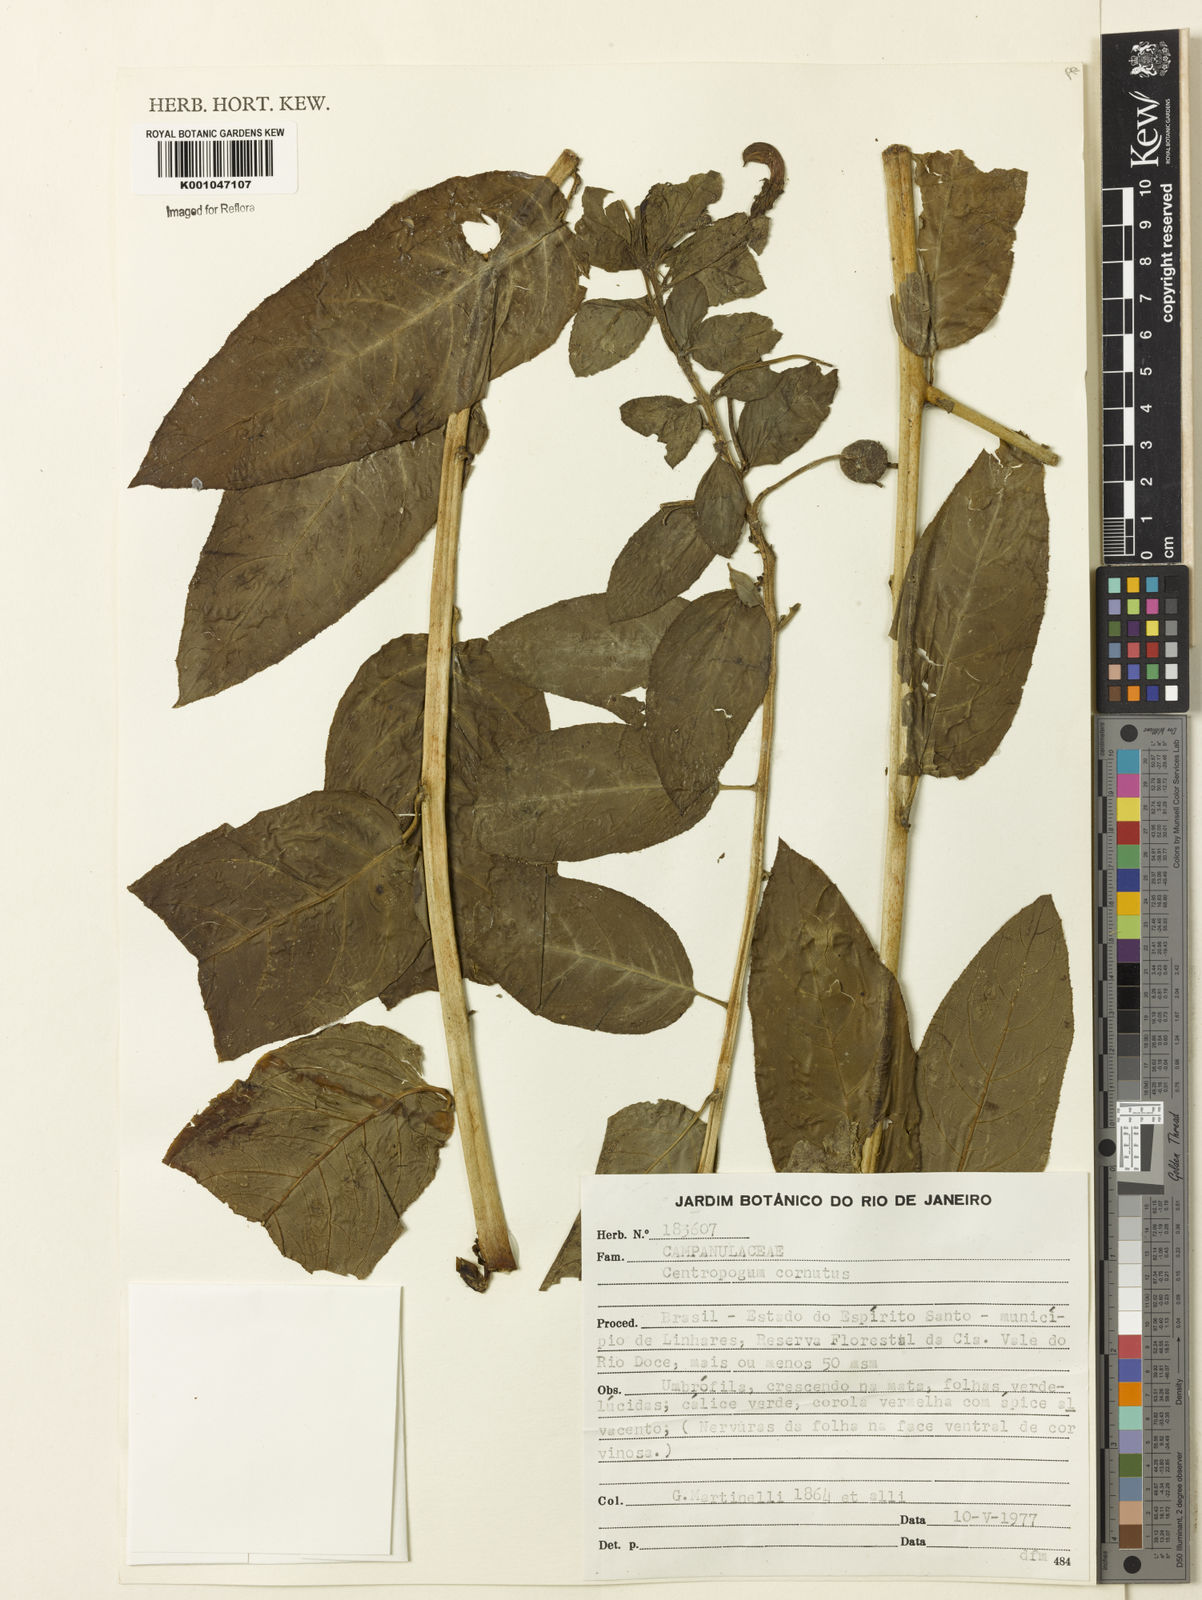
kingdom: Plantae
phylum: Tracheophyta
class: Magnoliopsida
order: Asterales
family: Campanulaceae
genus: Centropogon
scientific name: Centropogon cornutus
